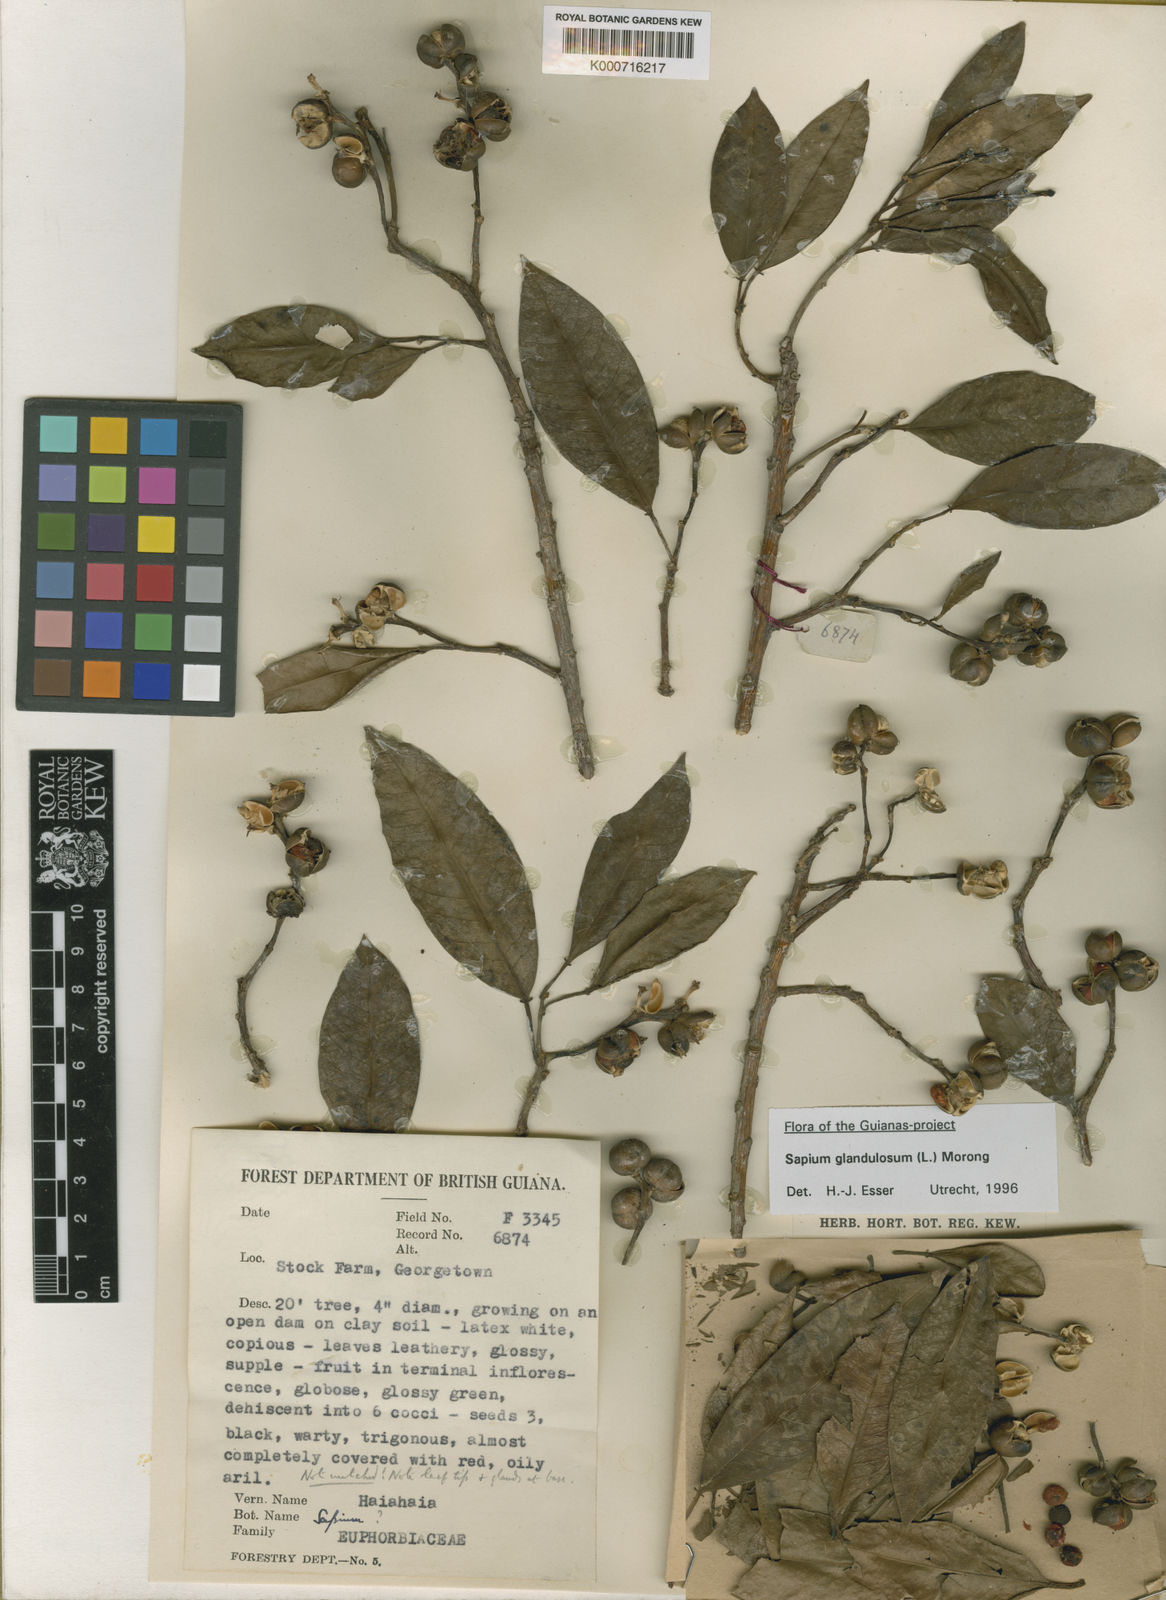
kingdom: Plantae
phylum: Tracheophyta
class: Magnoliopsida
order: Malpighiales
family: Euphorbiaceae
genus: Sapium
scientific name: Sapium glandulosum
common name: Milktree
